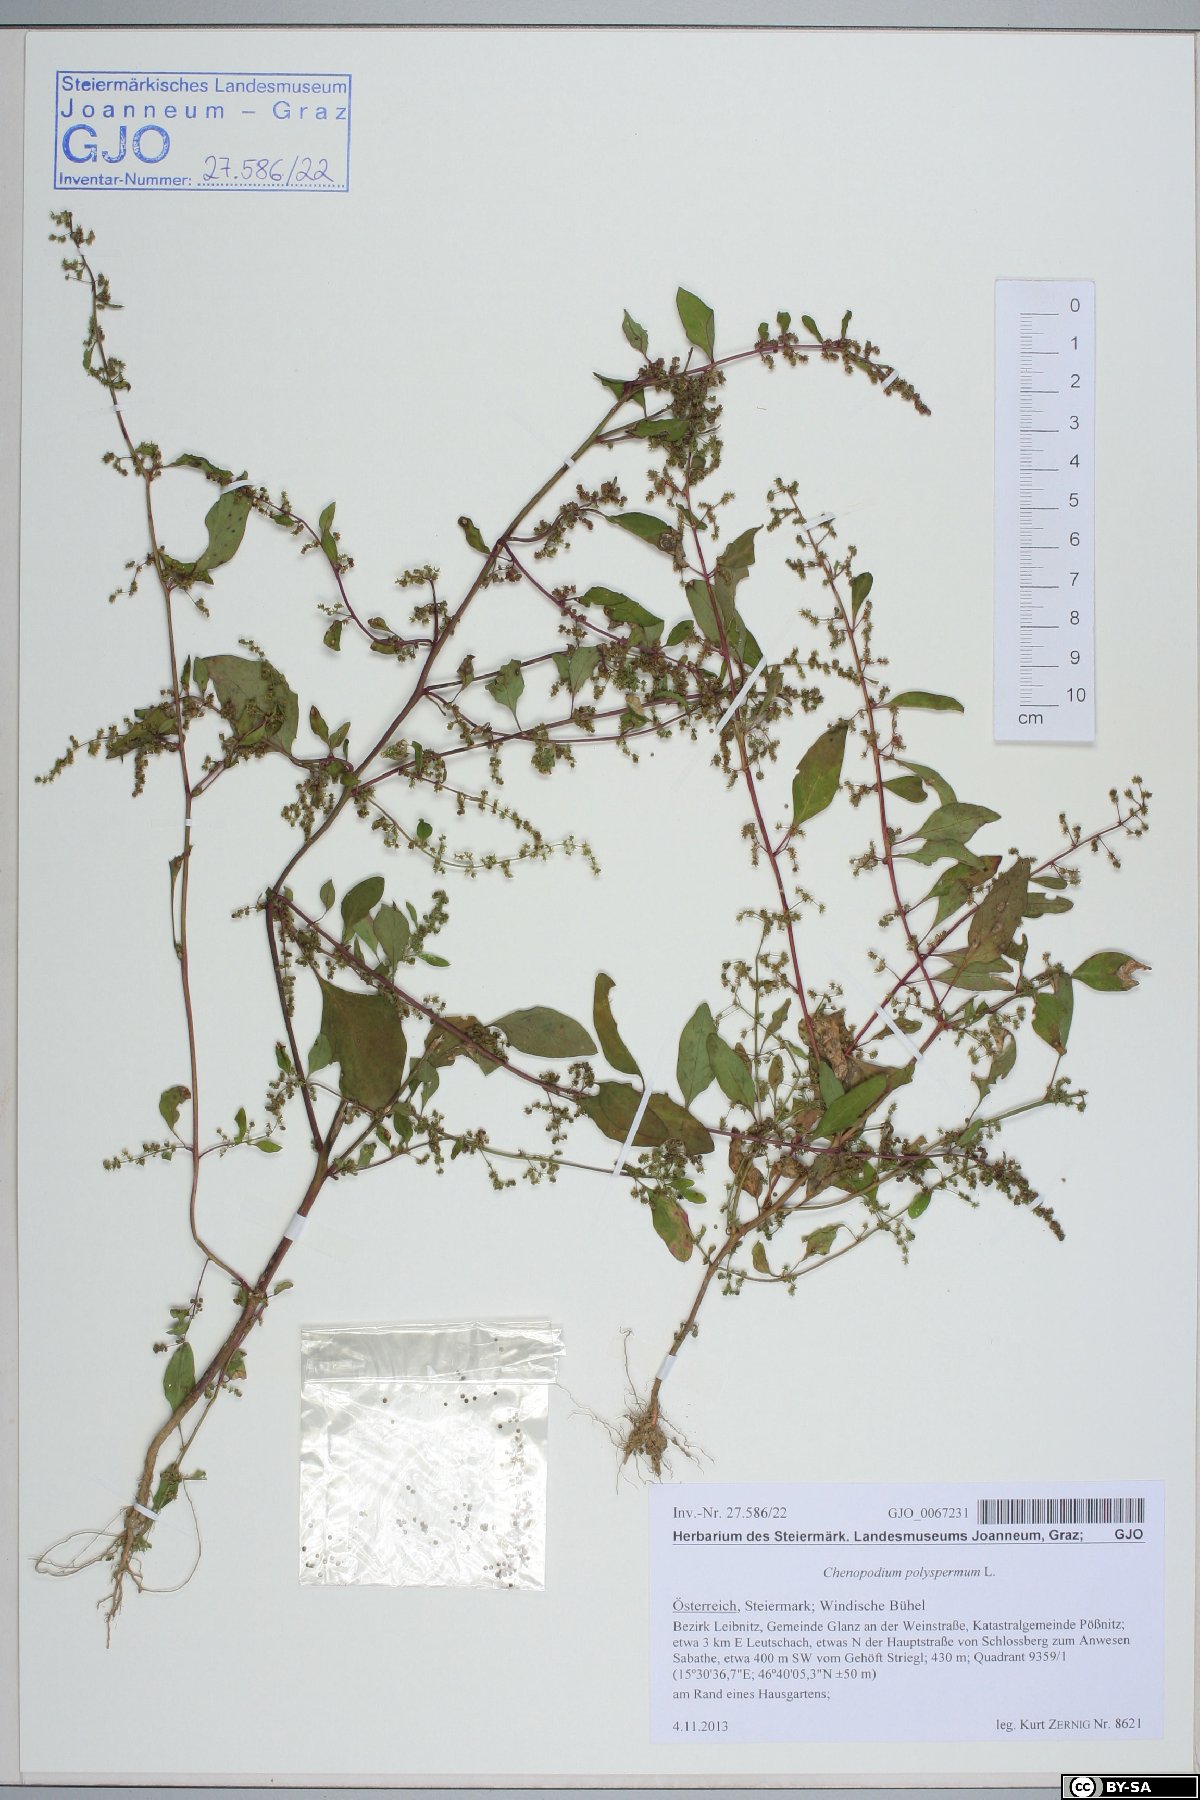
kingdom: Plantae
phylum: Tracheophyta
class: Magnoliopsida
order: Caryophyllales
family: Amaranthaceae
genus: Lipandra
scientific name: Lipandra polysperma
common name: Many-seed goosefoot
